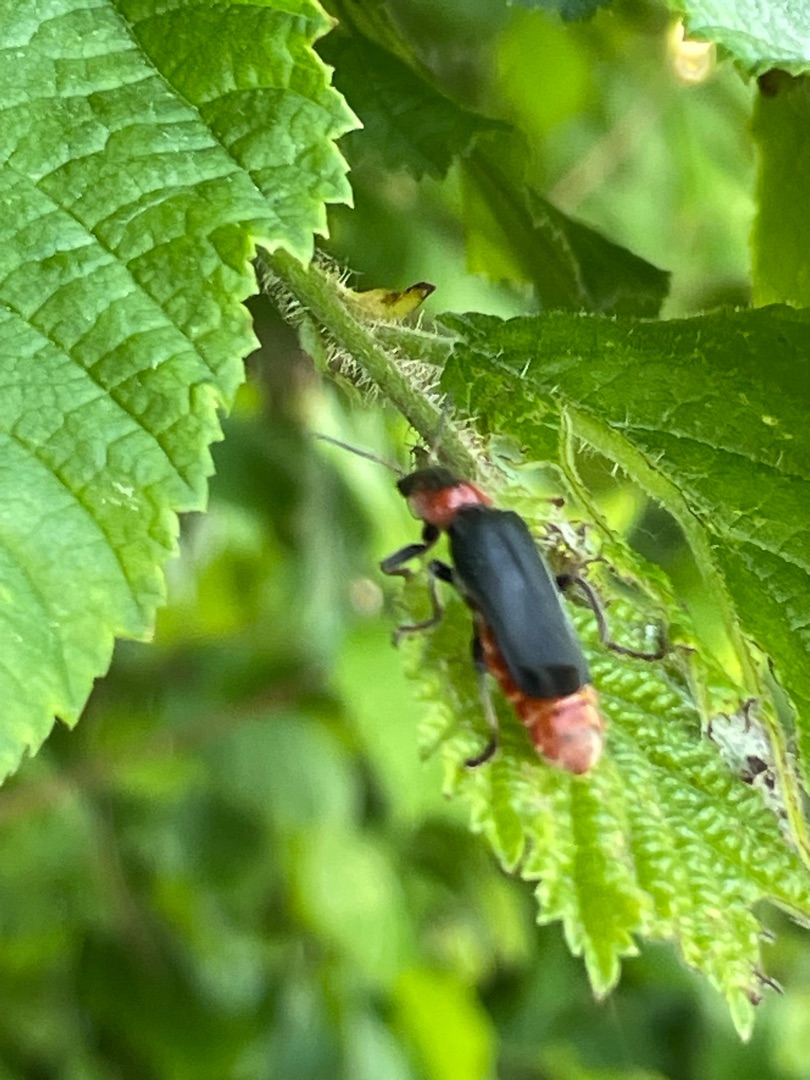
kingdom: Animalia
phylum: Arthropoda
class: Insecta
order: Coleoptera
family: Cantharidae
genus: Cantharis
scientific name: Cantharis fusca
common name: Stor blødvinge
